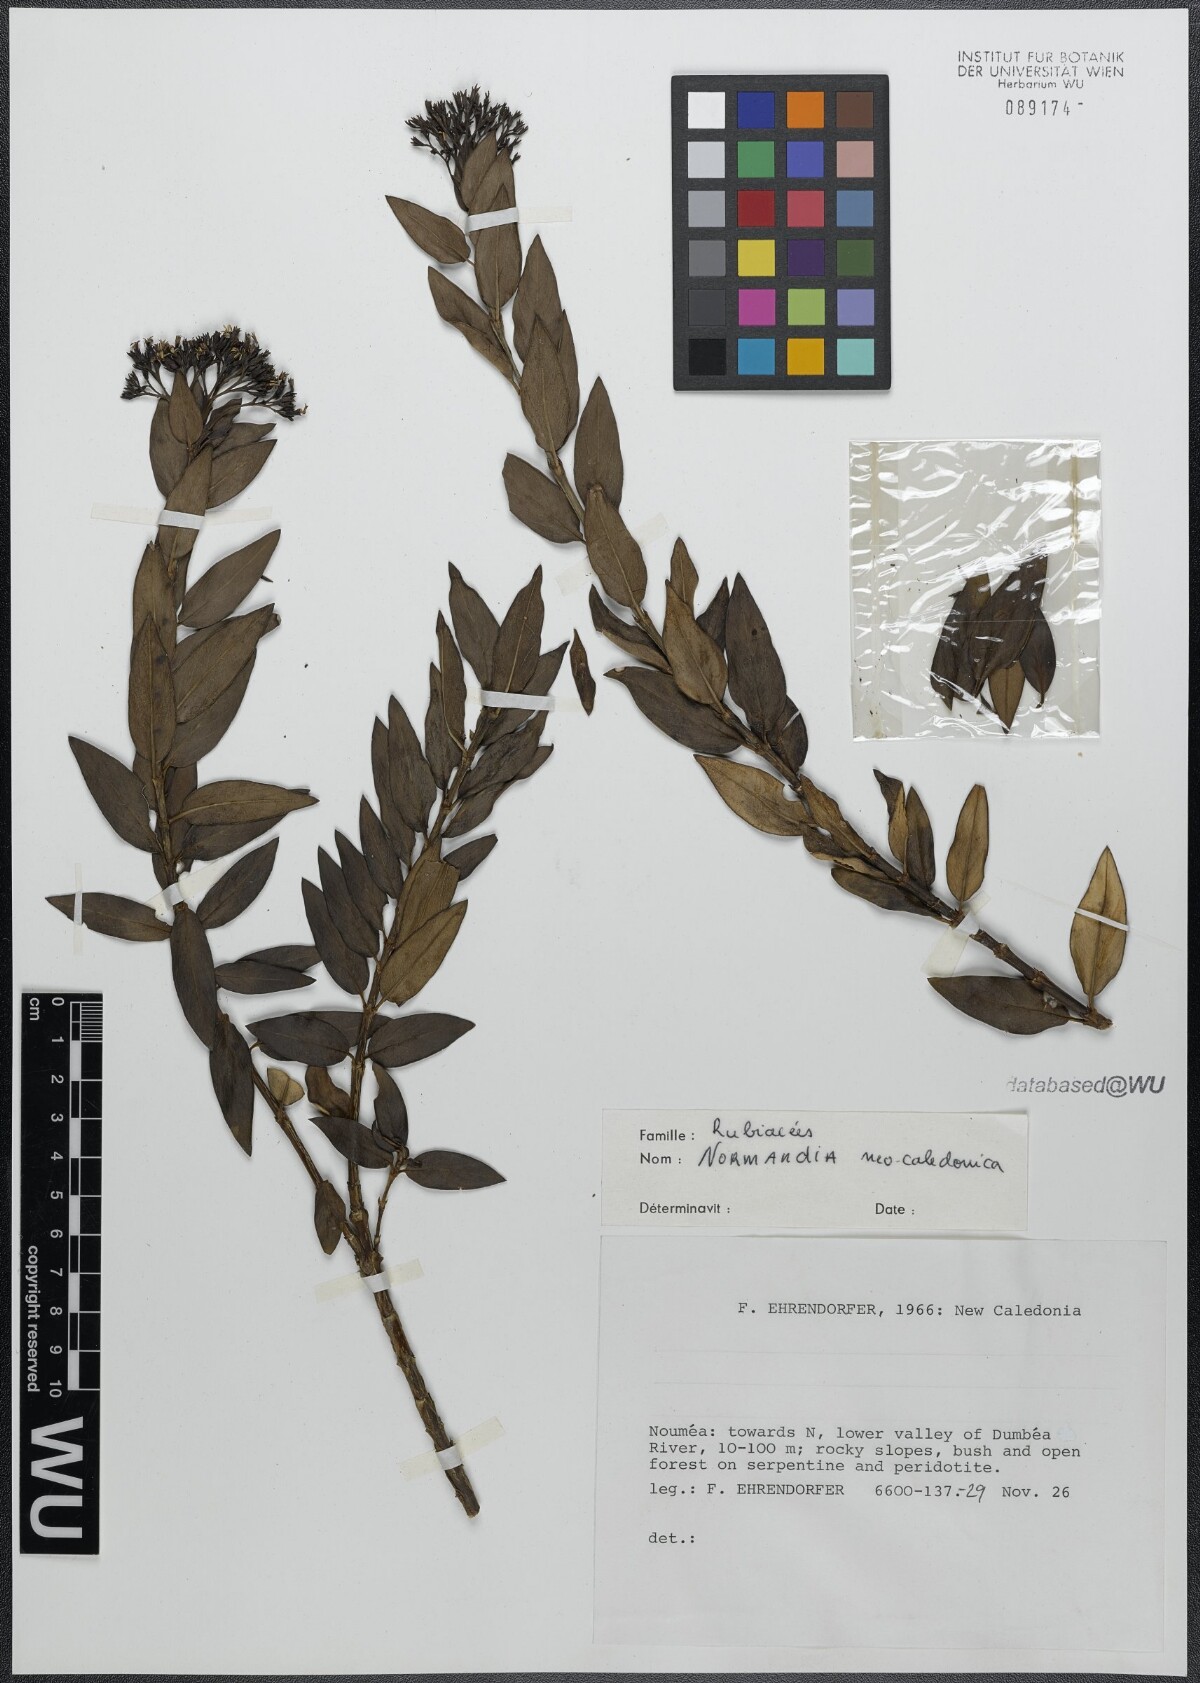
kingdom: Plantae
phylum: Tracheophyta
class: Magnoliopsida
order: Gentianales
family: Rubiaceae
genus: Normandia
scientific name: Normandia neocaledonica
